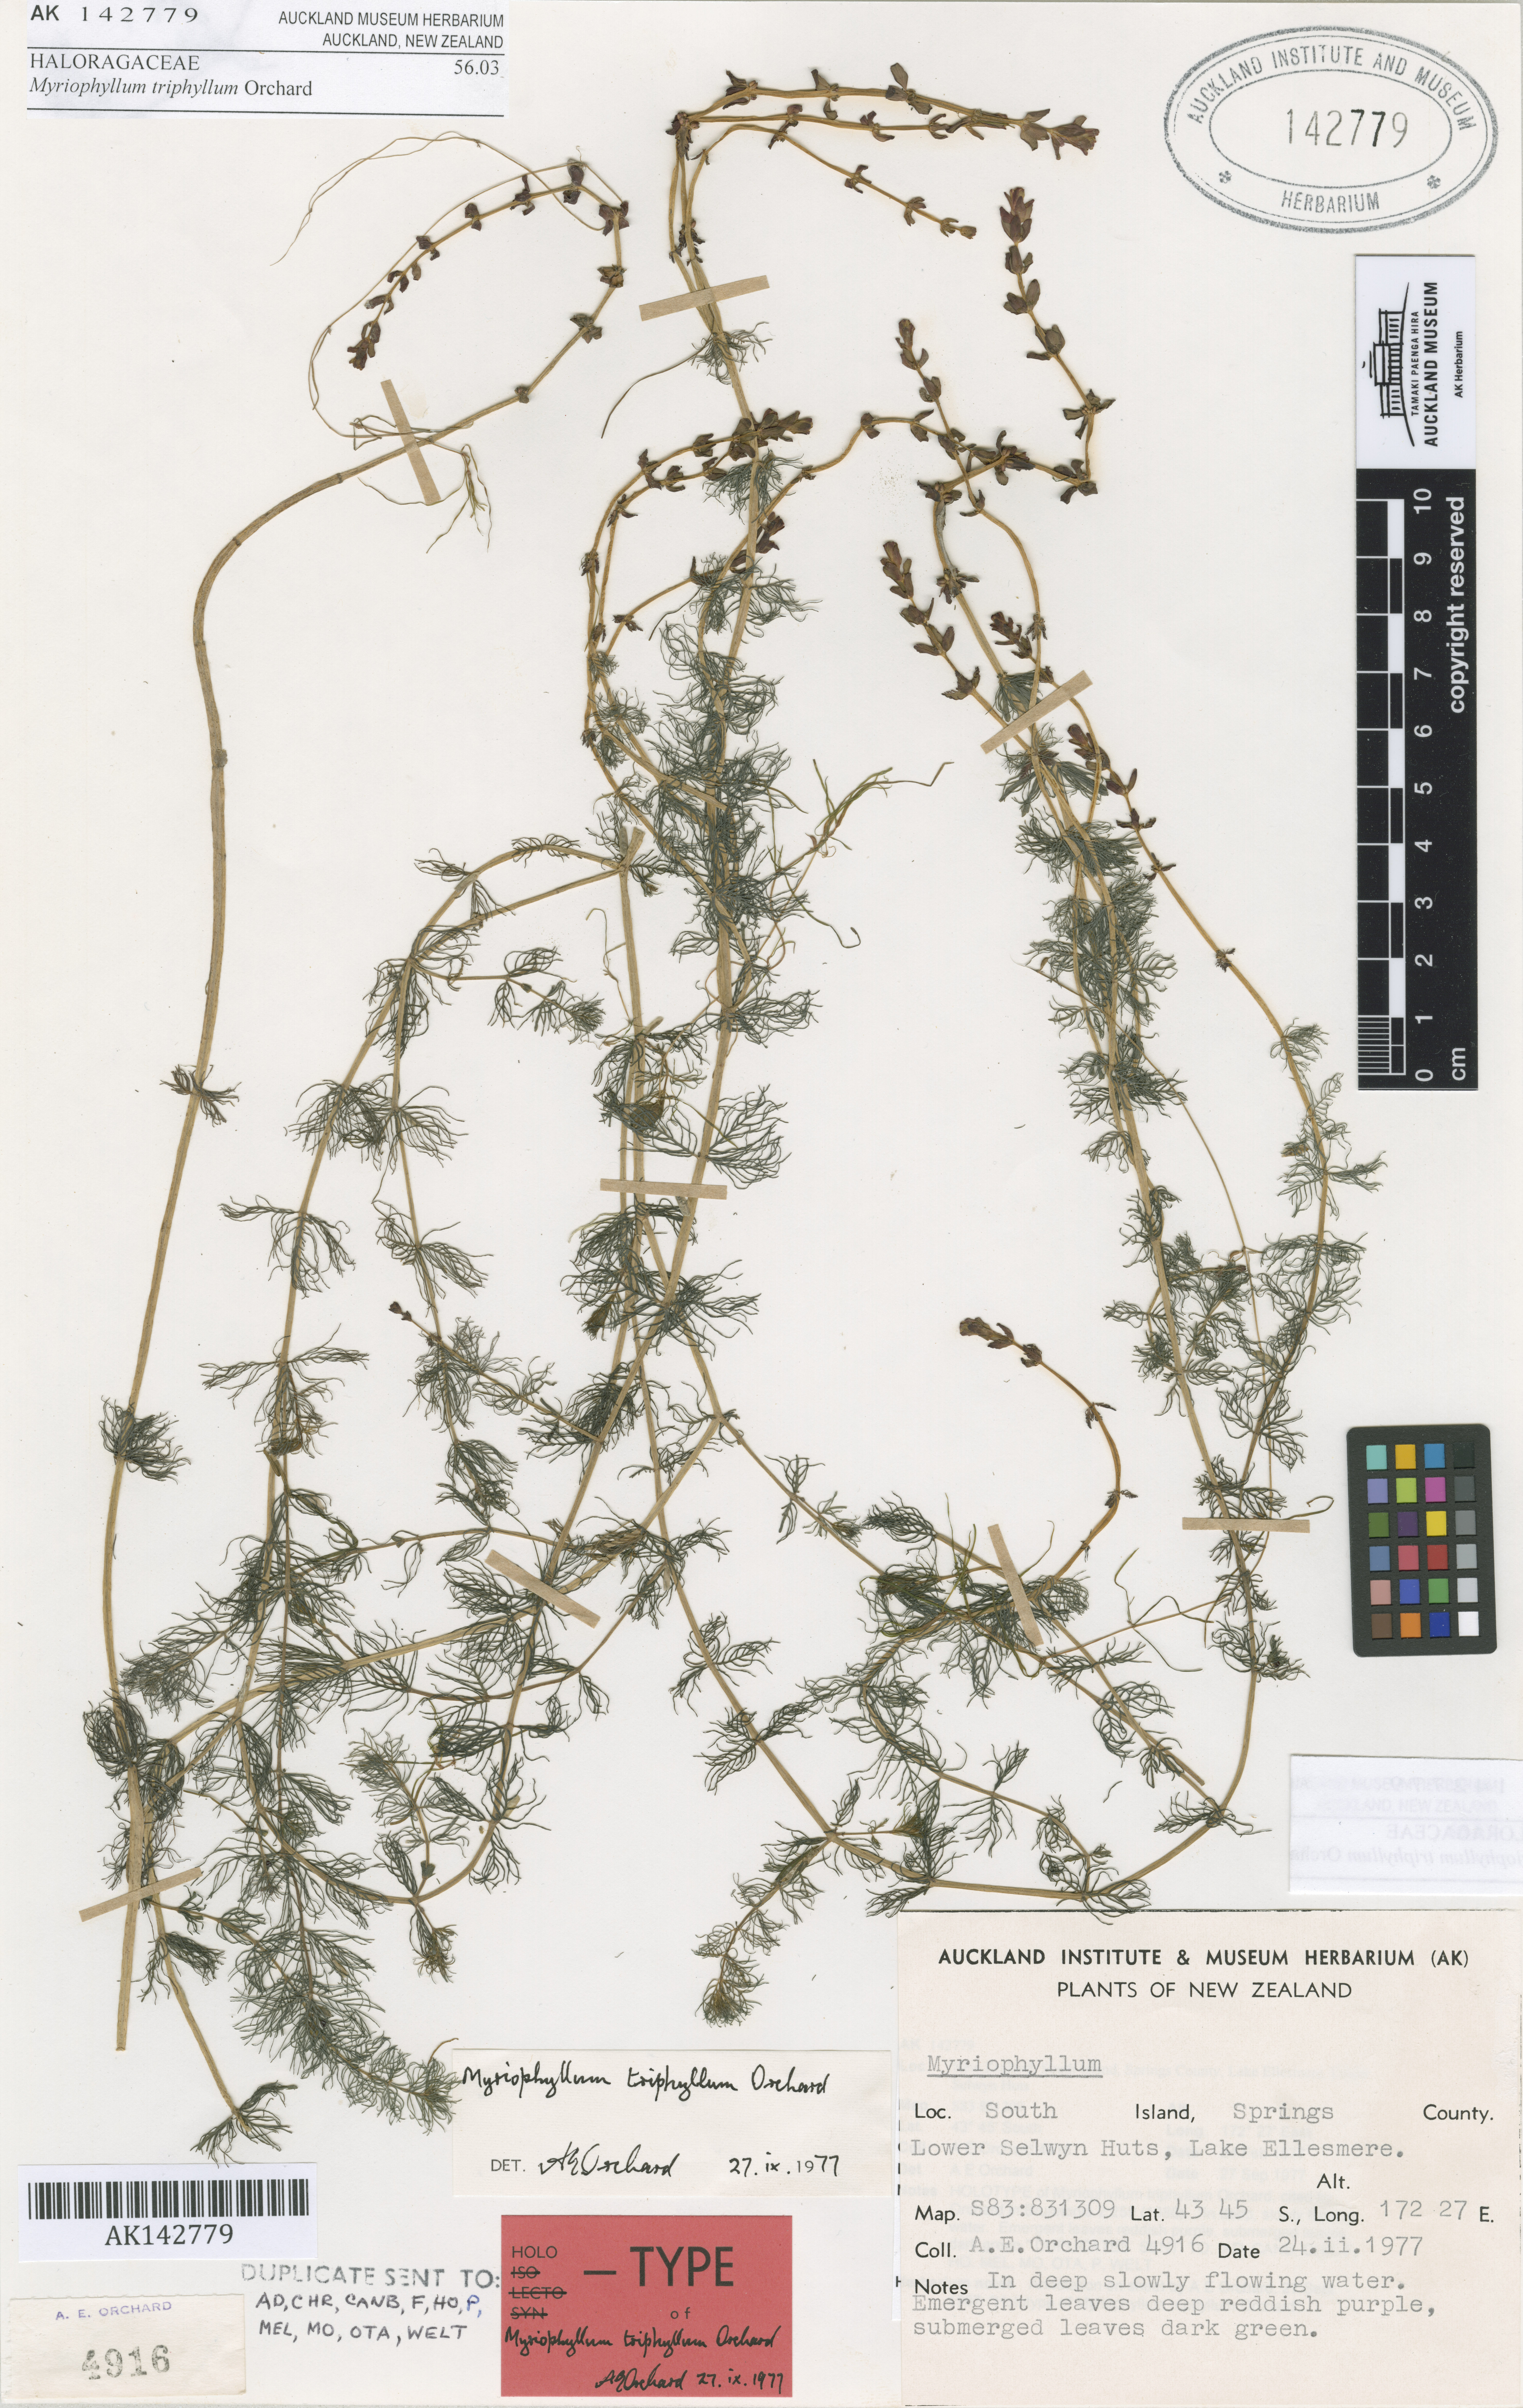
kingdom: Plantae
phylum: Tracheophyta
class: Magnoliopsida
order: Saxifragales
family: Haloragaceae
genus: Myriophyllum
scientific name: Myriophyllum triphyllum
